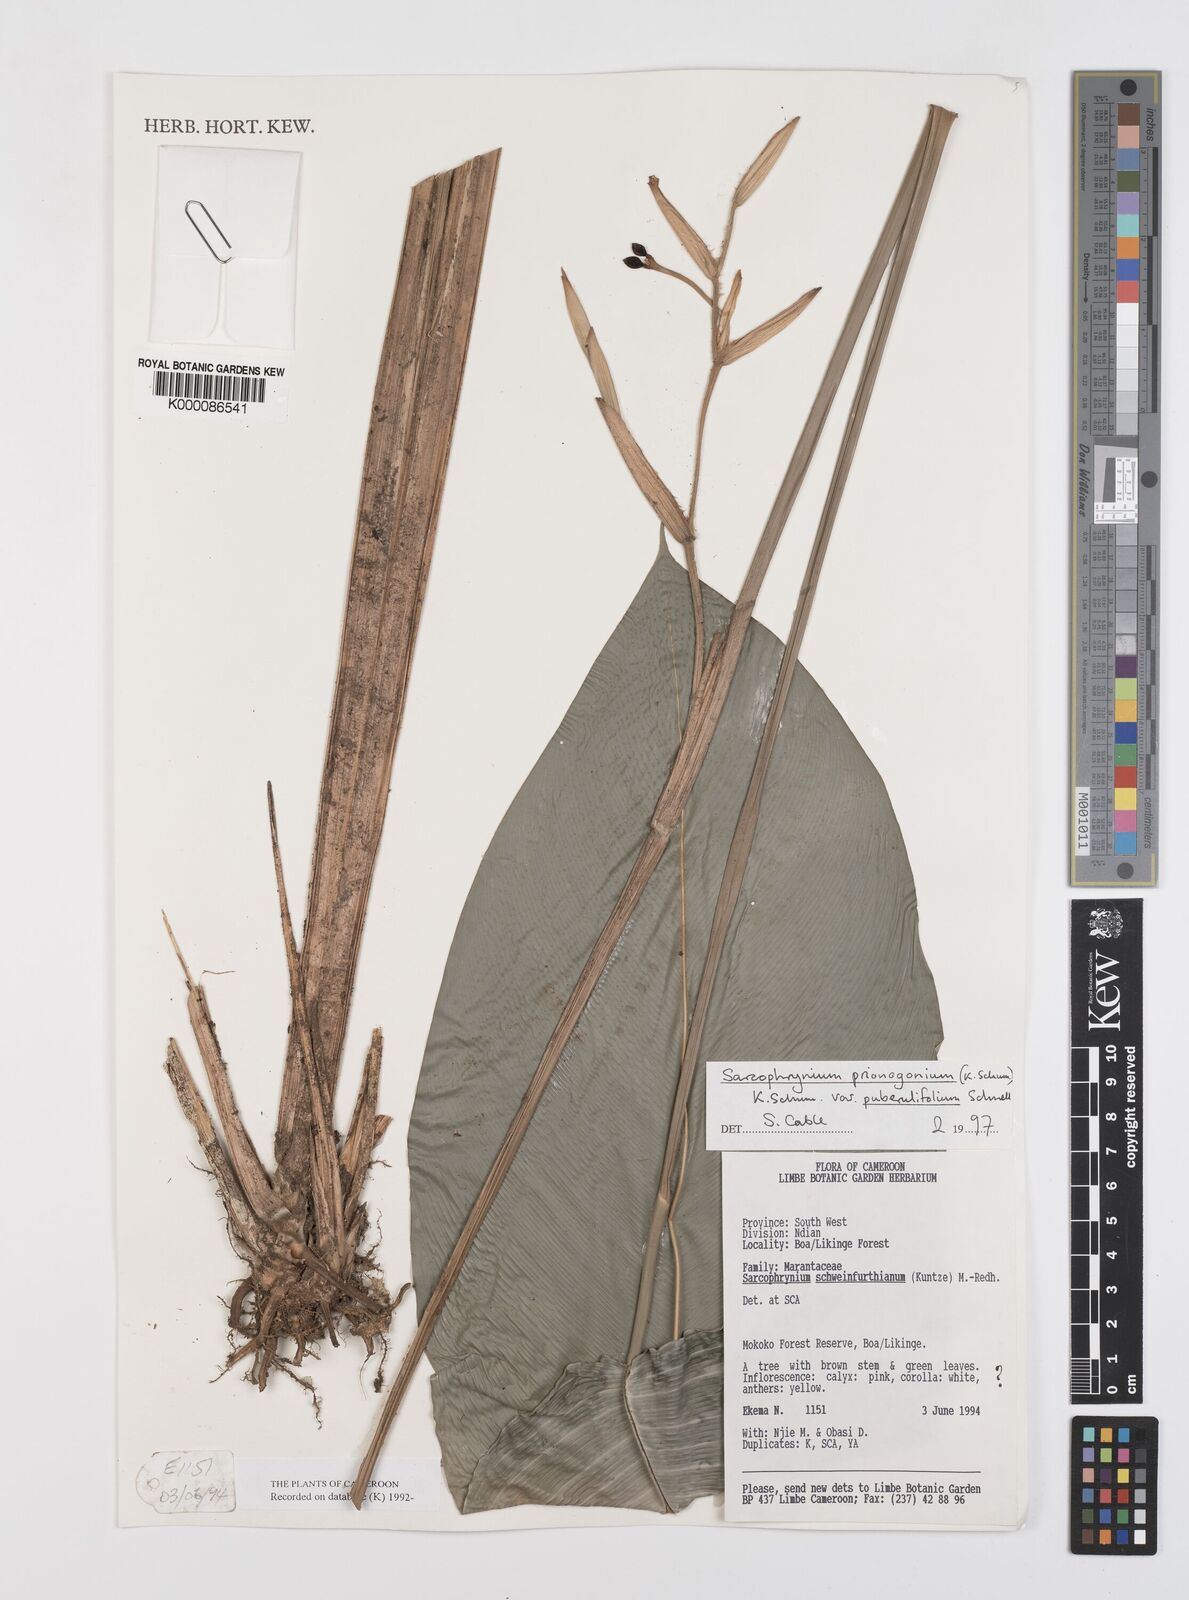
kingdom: Plantae
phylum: Tracheophyta
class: Liliopsida
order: Zingiberales
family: Marantaceae
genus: Sarcophrynium
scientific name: Sarcophrynium prionogonium
